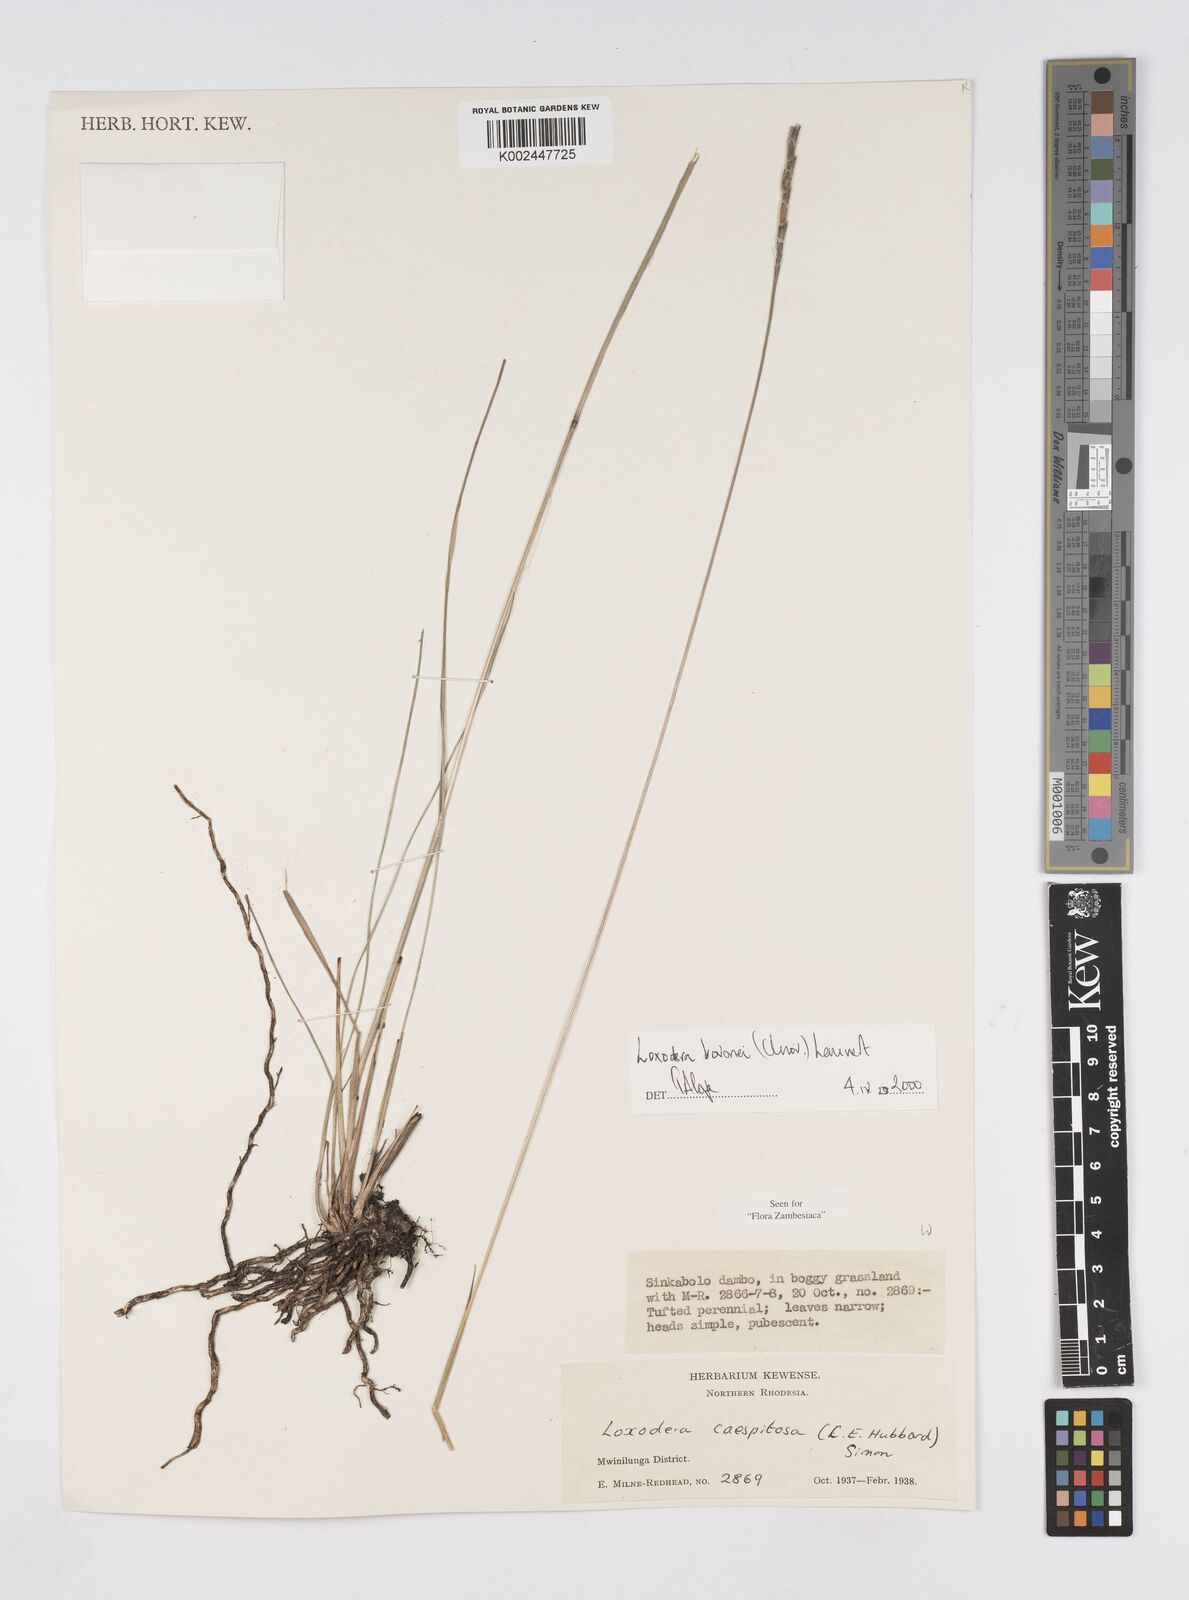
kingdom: Plantae
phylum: Tracheophyta
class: Liliopsida
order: Poales
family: Poaceae
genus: Loxodera
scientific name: Loxodera bovonei
